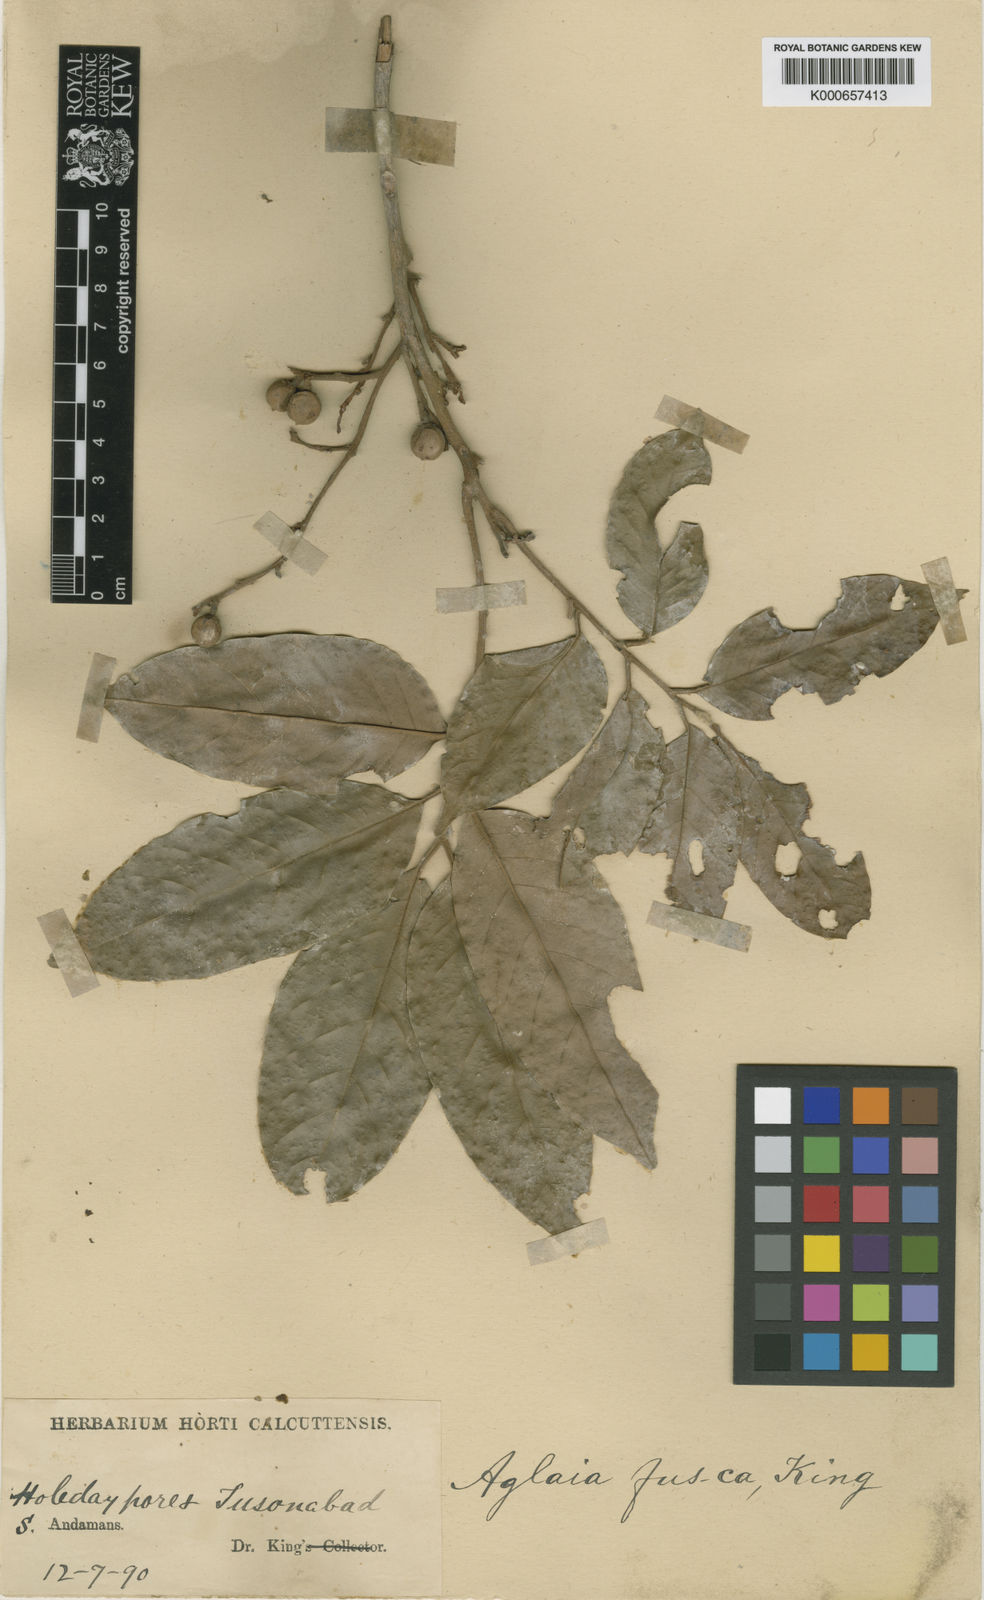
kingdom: Plantae
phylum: Tracheophyta
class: Magnoliopsida
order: Sapindales
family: Meliaceae
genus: Aglaia
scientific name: Aglaia oligophylla
